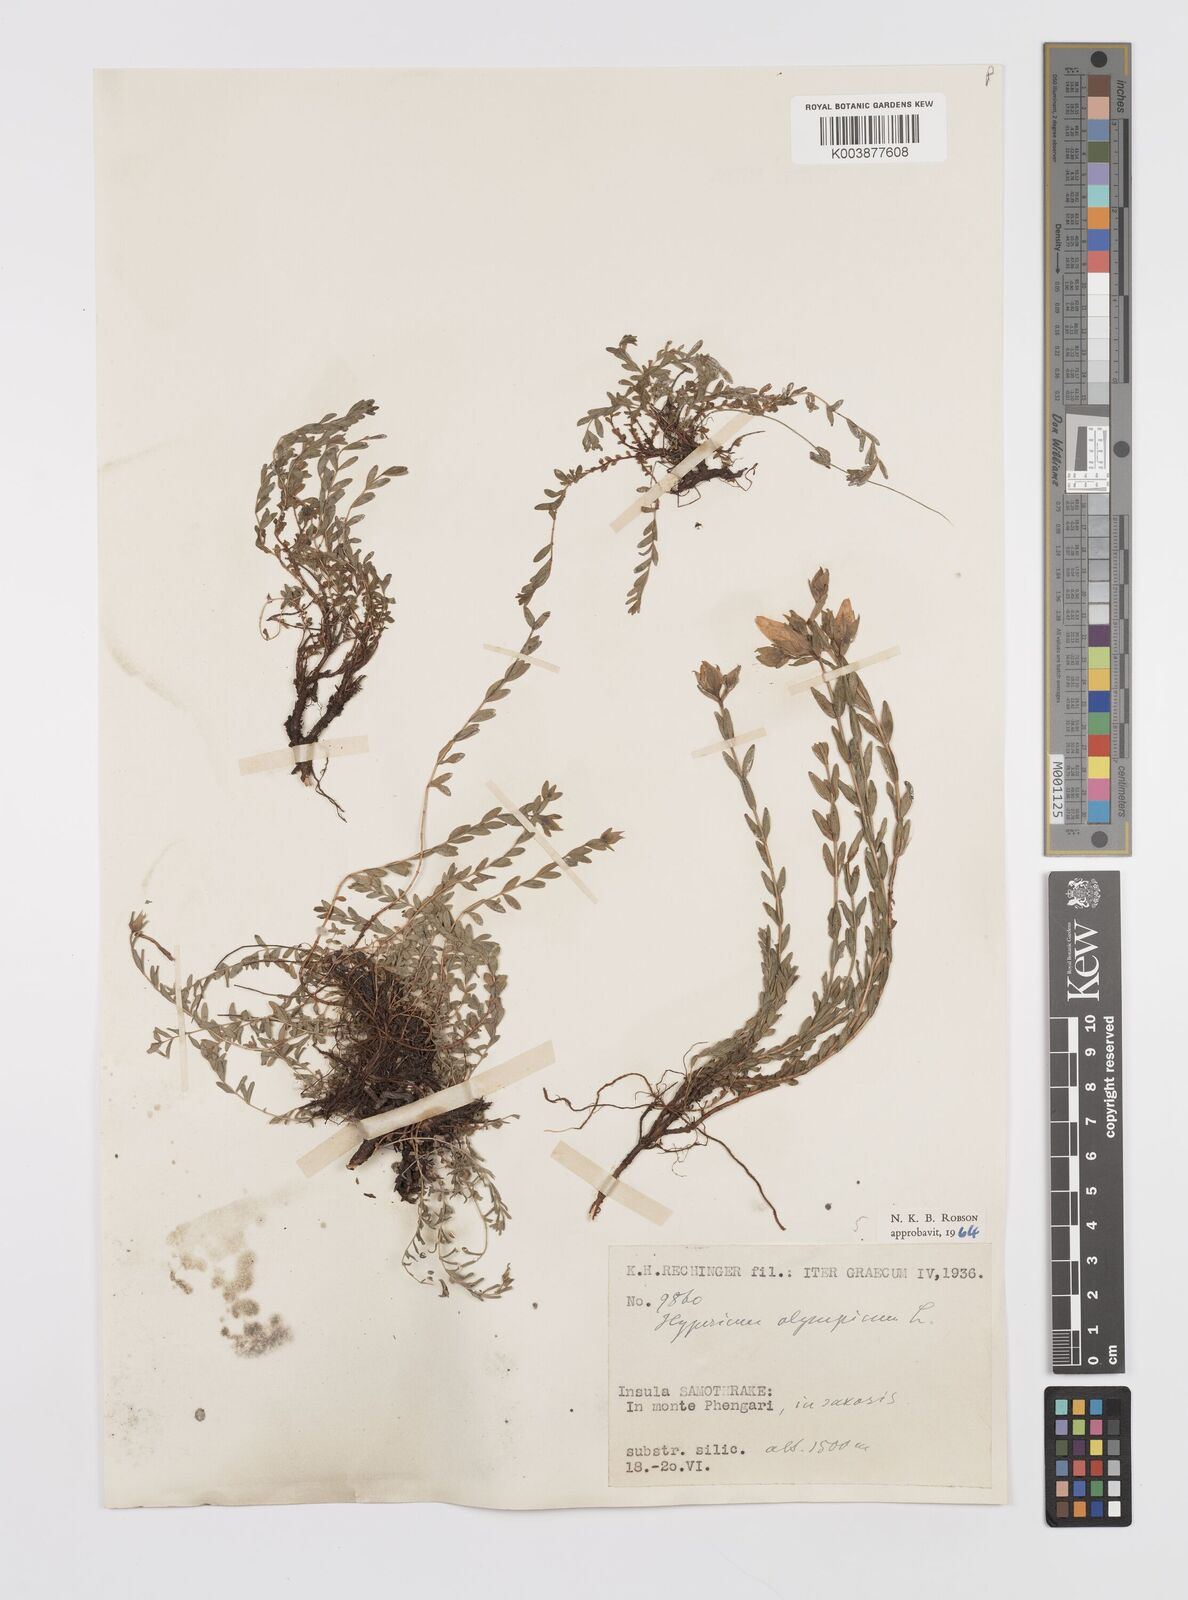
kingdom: Plantae
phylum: Tracheophyta
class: Magnoliopsida
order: Malpighiales
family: Hypericaceae
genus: Hypericum
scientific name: Hypericum olympicum
